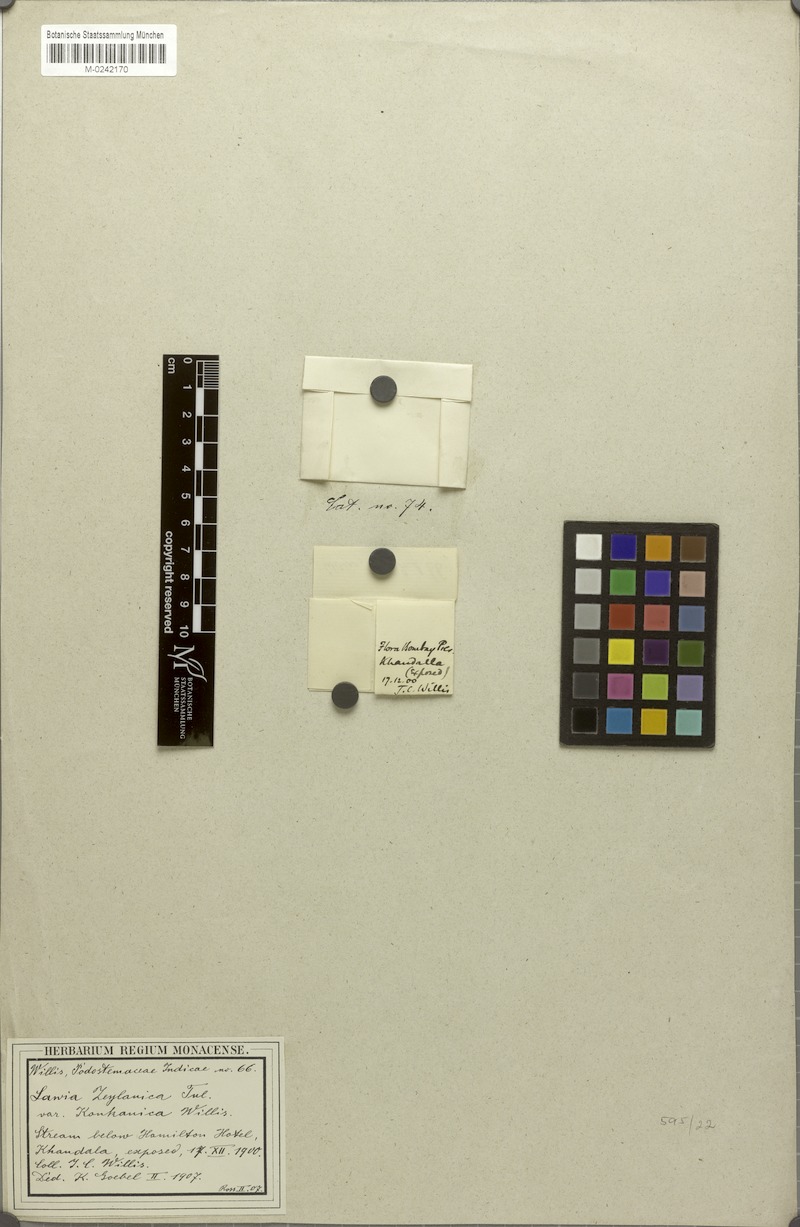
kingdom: Plantae
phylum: Tracheophyta
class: Magnoliopsida
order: Malpighiales
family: Podostemaceae
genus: Dalzellia
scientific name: Dalzellia ceylanica
